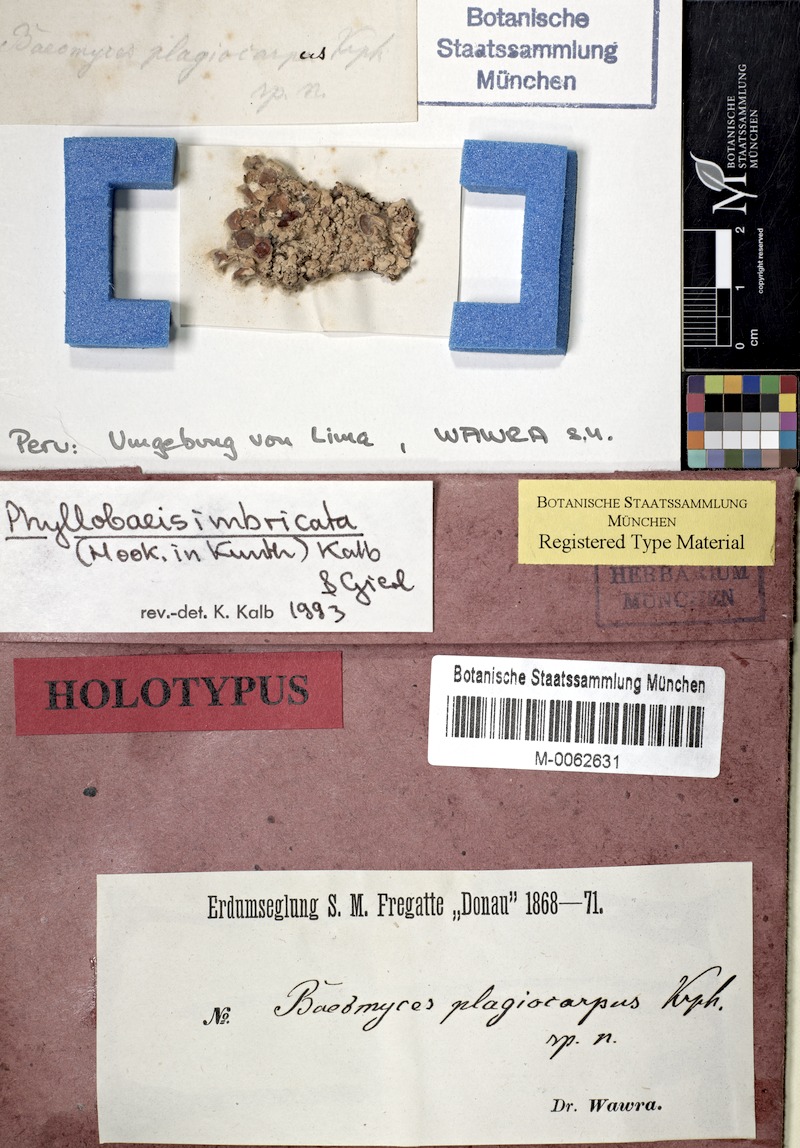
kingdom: Fungi
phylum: Ascomycota
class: Lecanoromycetes
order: Baeomycetales
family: Baeomycetaceae
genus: Phyllobaeis
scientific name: Phyllobaeis imbricata
